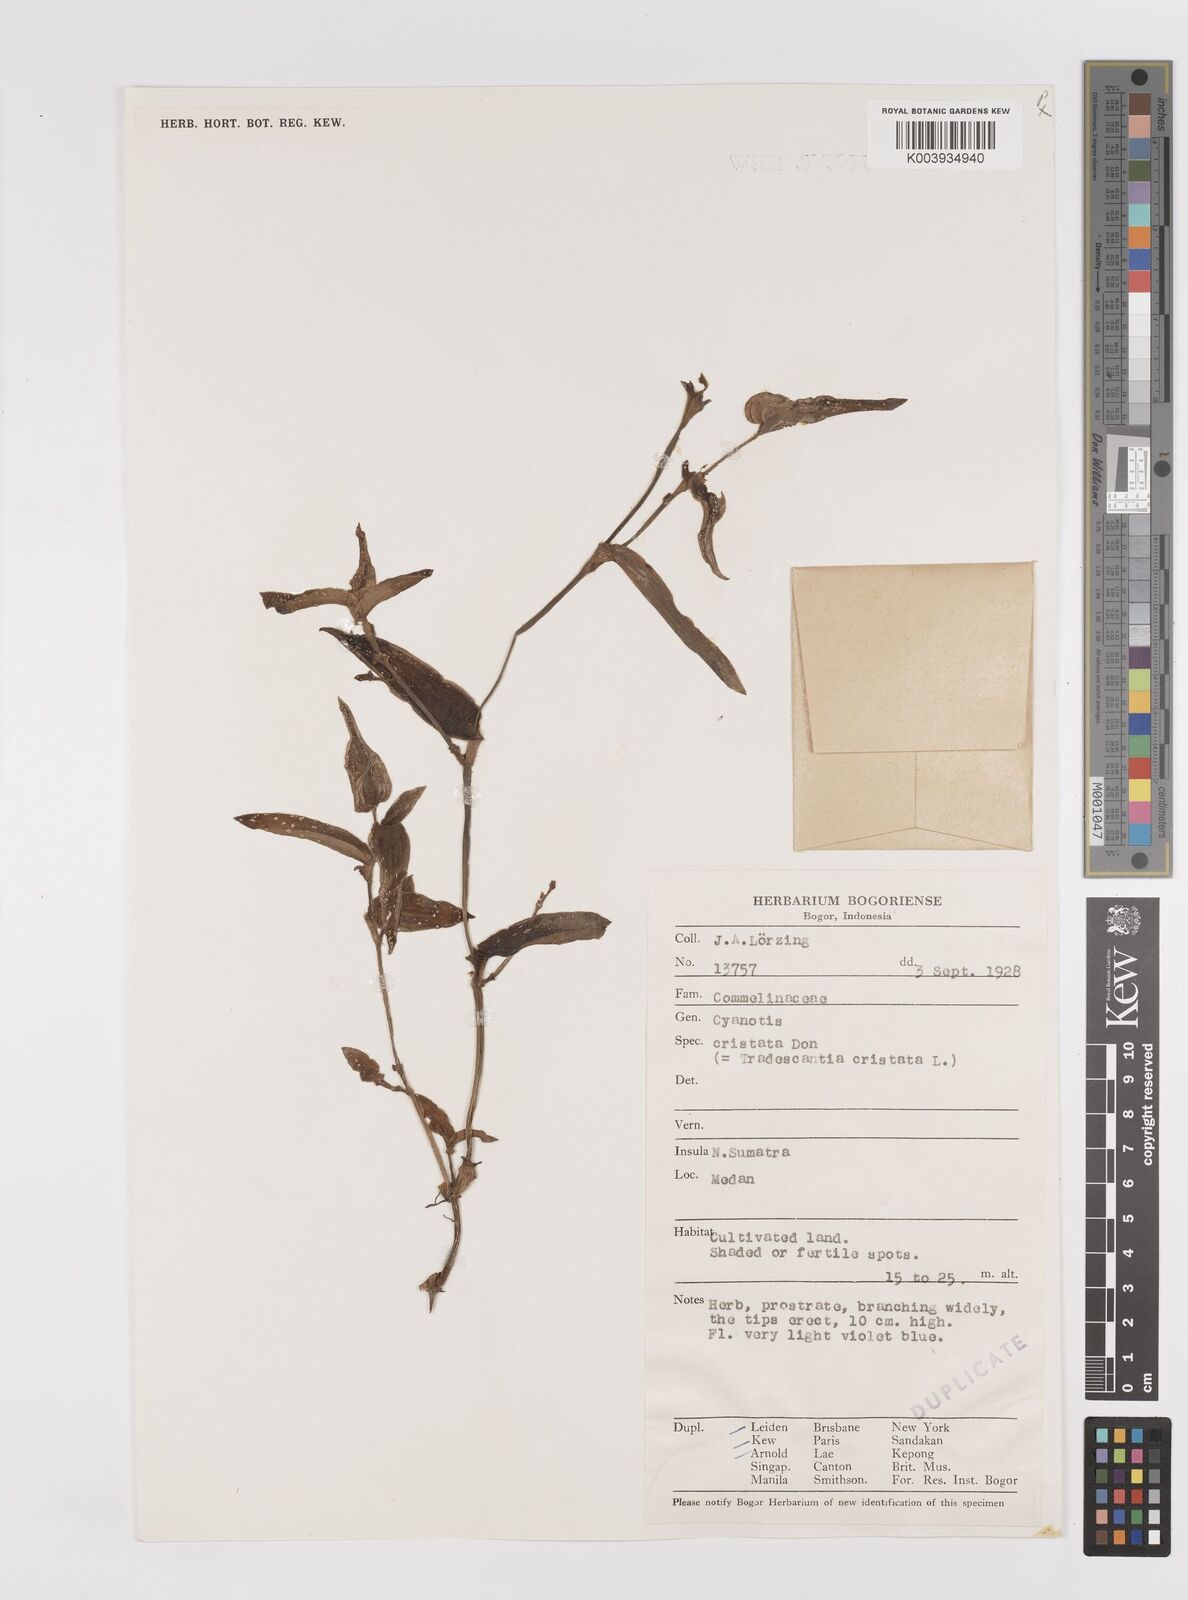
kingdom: Plantae
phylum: Tracheophyta
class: Liliopsida
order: Commelinales
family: Commelinaceae
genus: Cyanotis
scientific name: Cyanotis cristata
